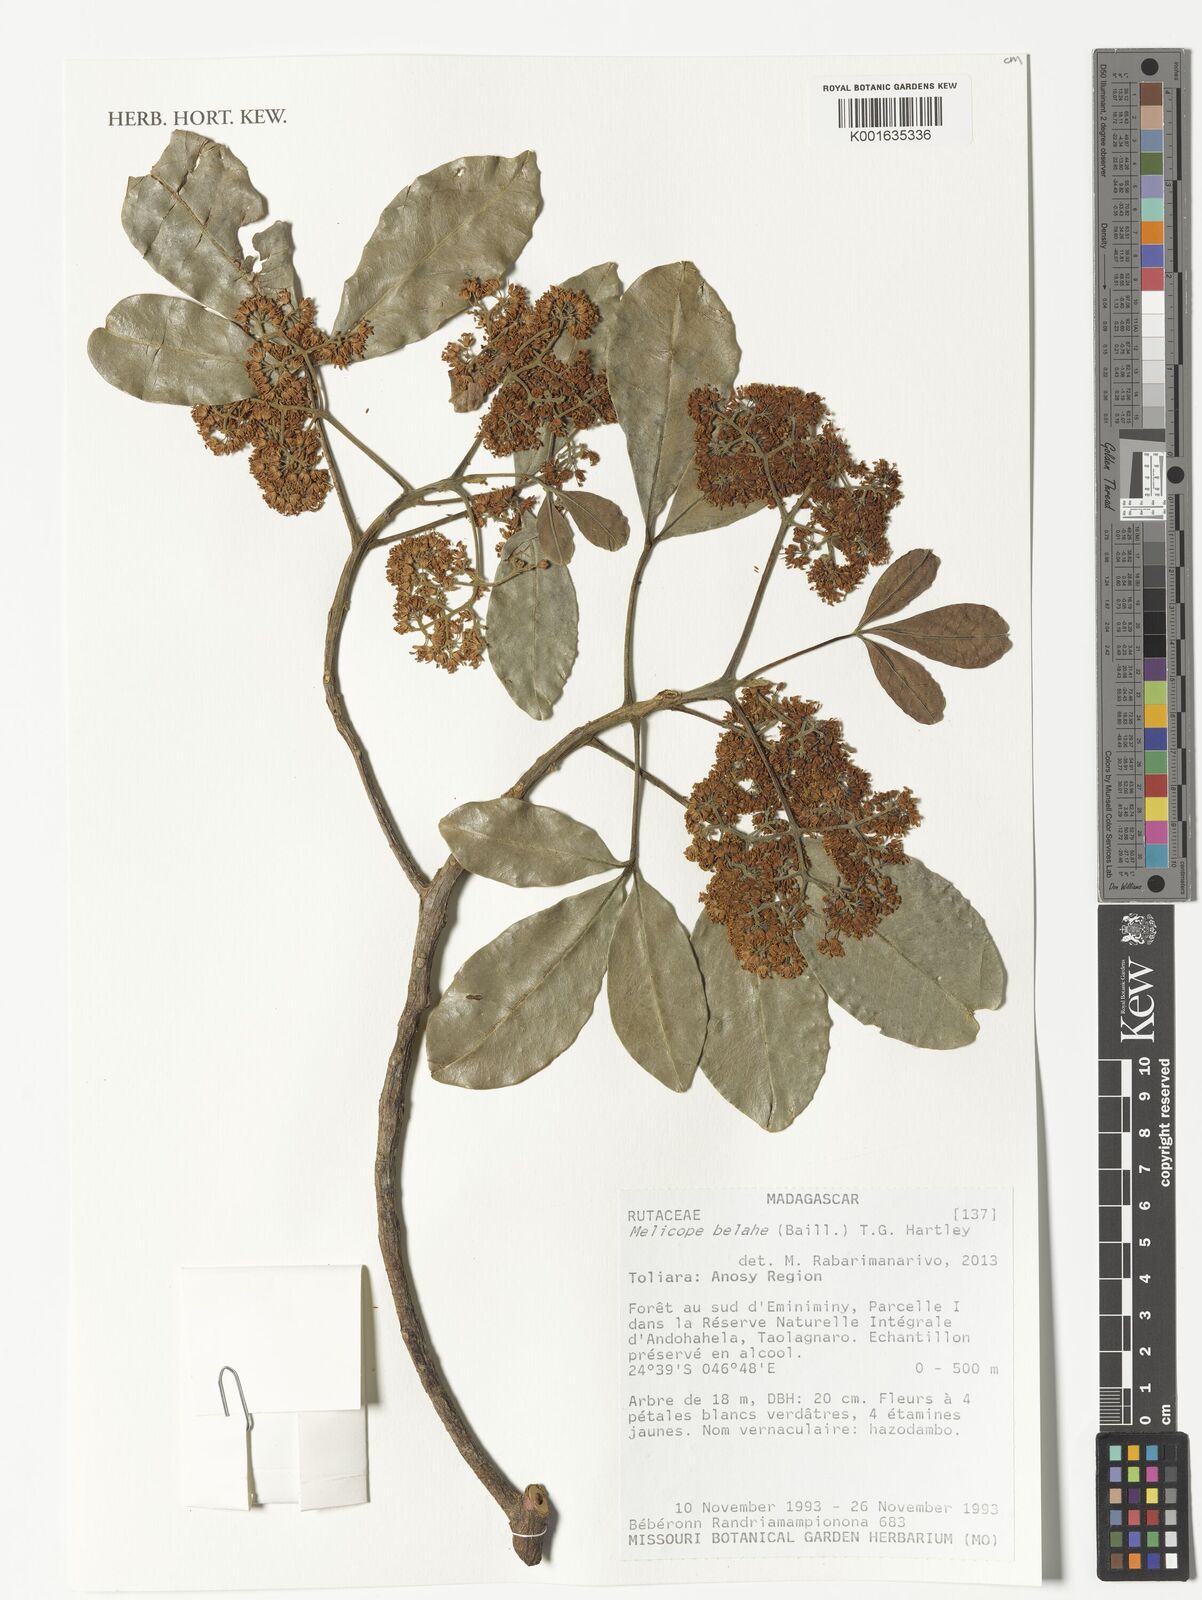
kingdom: Plantae
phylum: Tracheophyta
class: Magnoliopsida
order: Sapindales
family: Rutaceae
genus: Melicope
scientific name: Melicope belahe
